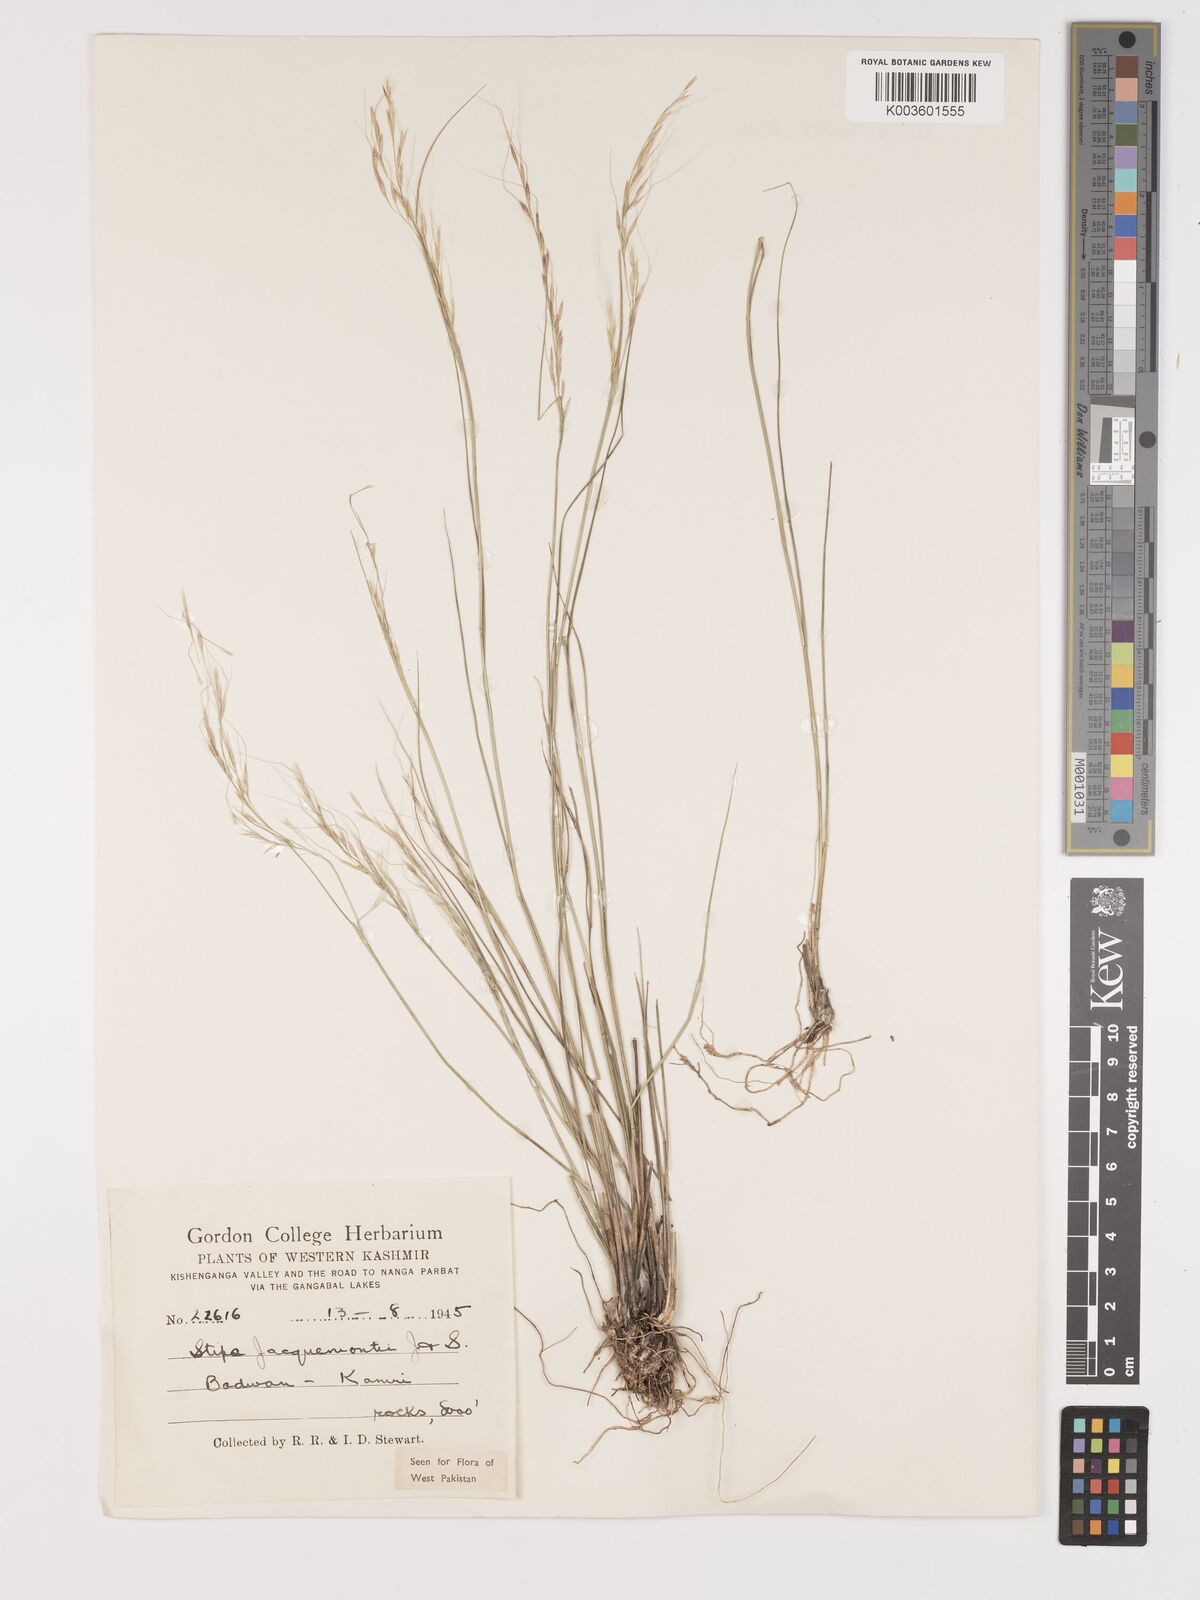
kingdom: Plantae
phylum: Tracheophyta
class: Liliopsida
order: Poales
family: Poaceae
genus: Achnatherum
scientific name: Achnatherum jacquemontii
